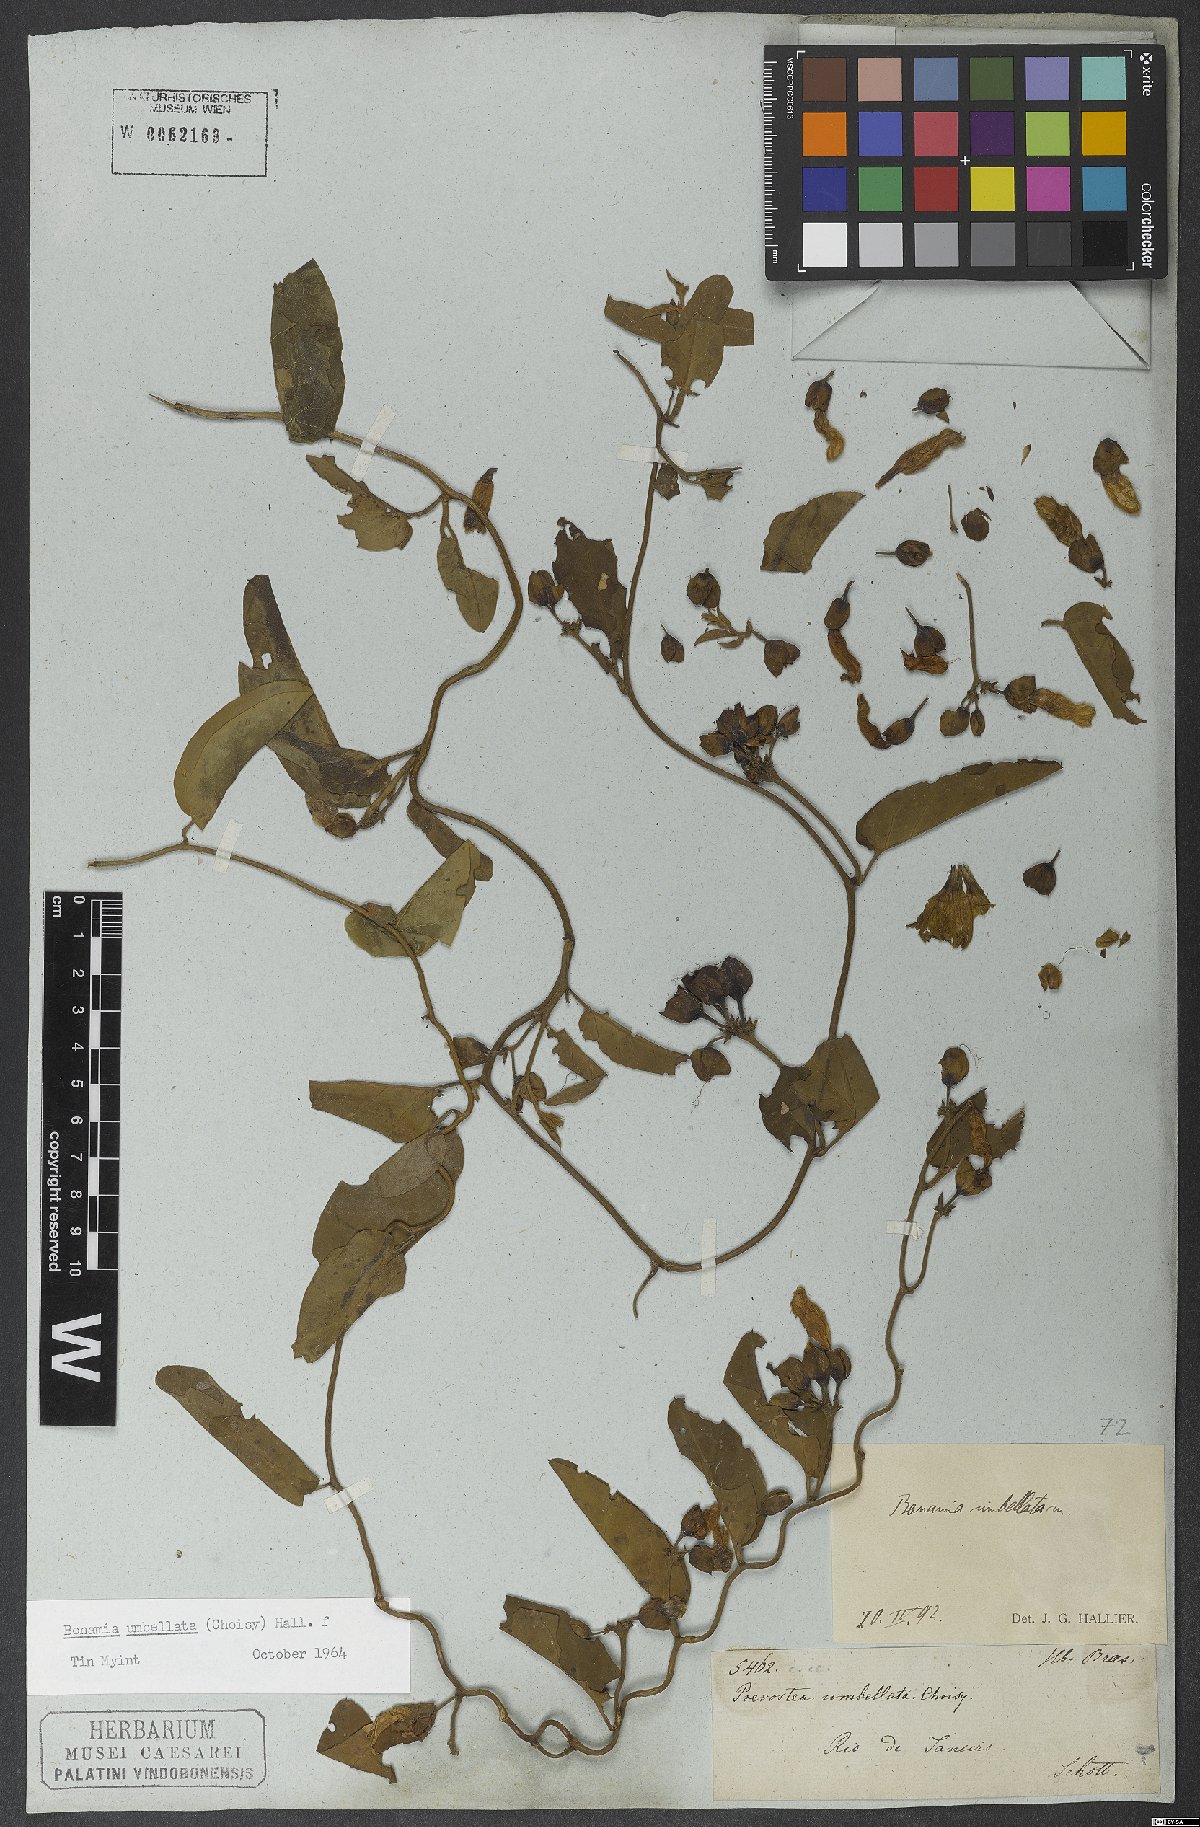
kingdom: Plantae
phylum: Tracheophyta
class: Magnoliopsida
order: Solanales
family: Convolvulaceae
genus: Bonamia
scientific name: Bonamia umbellata
